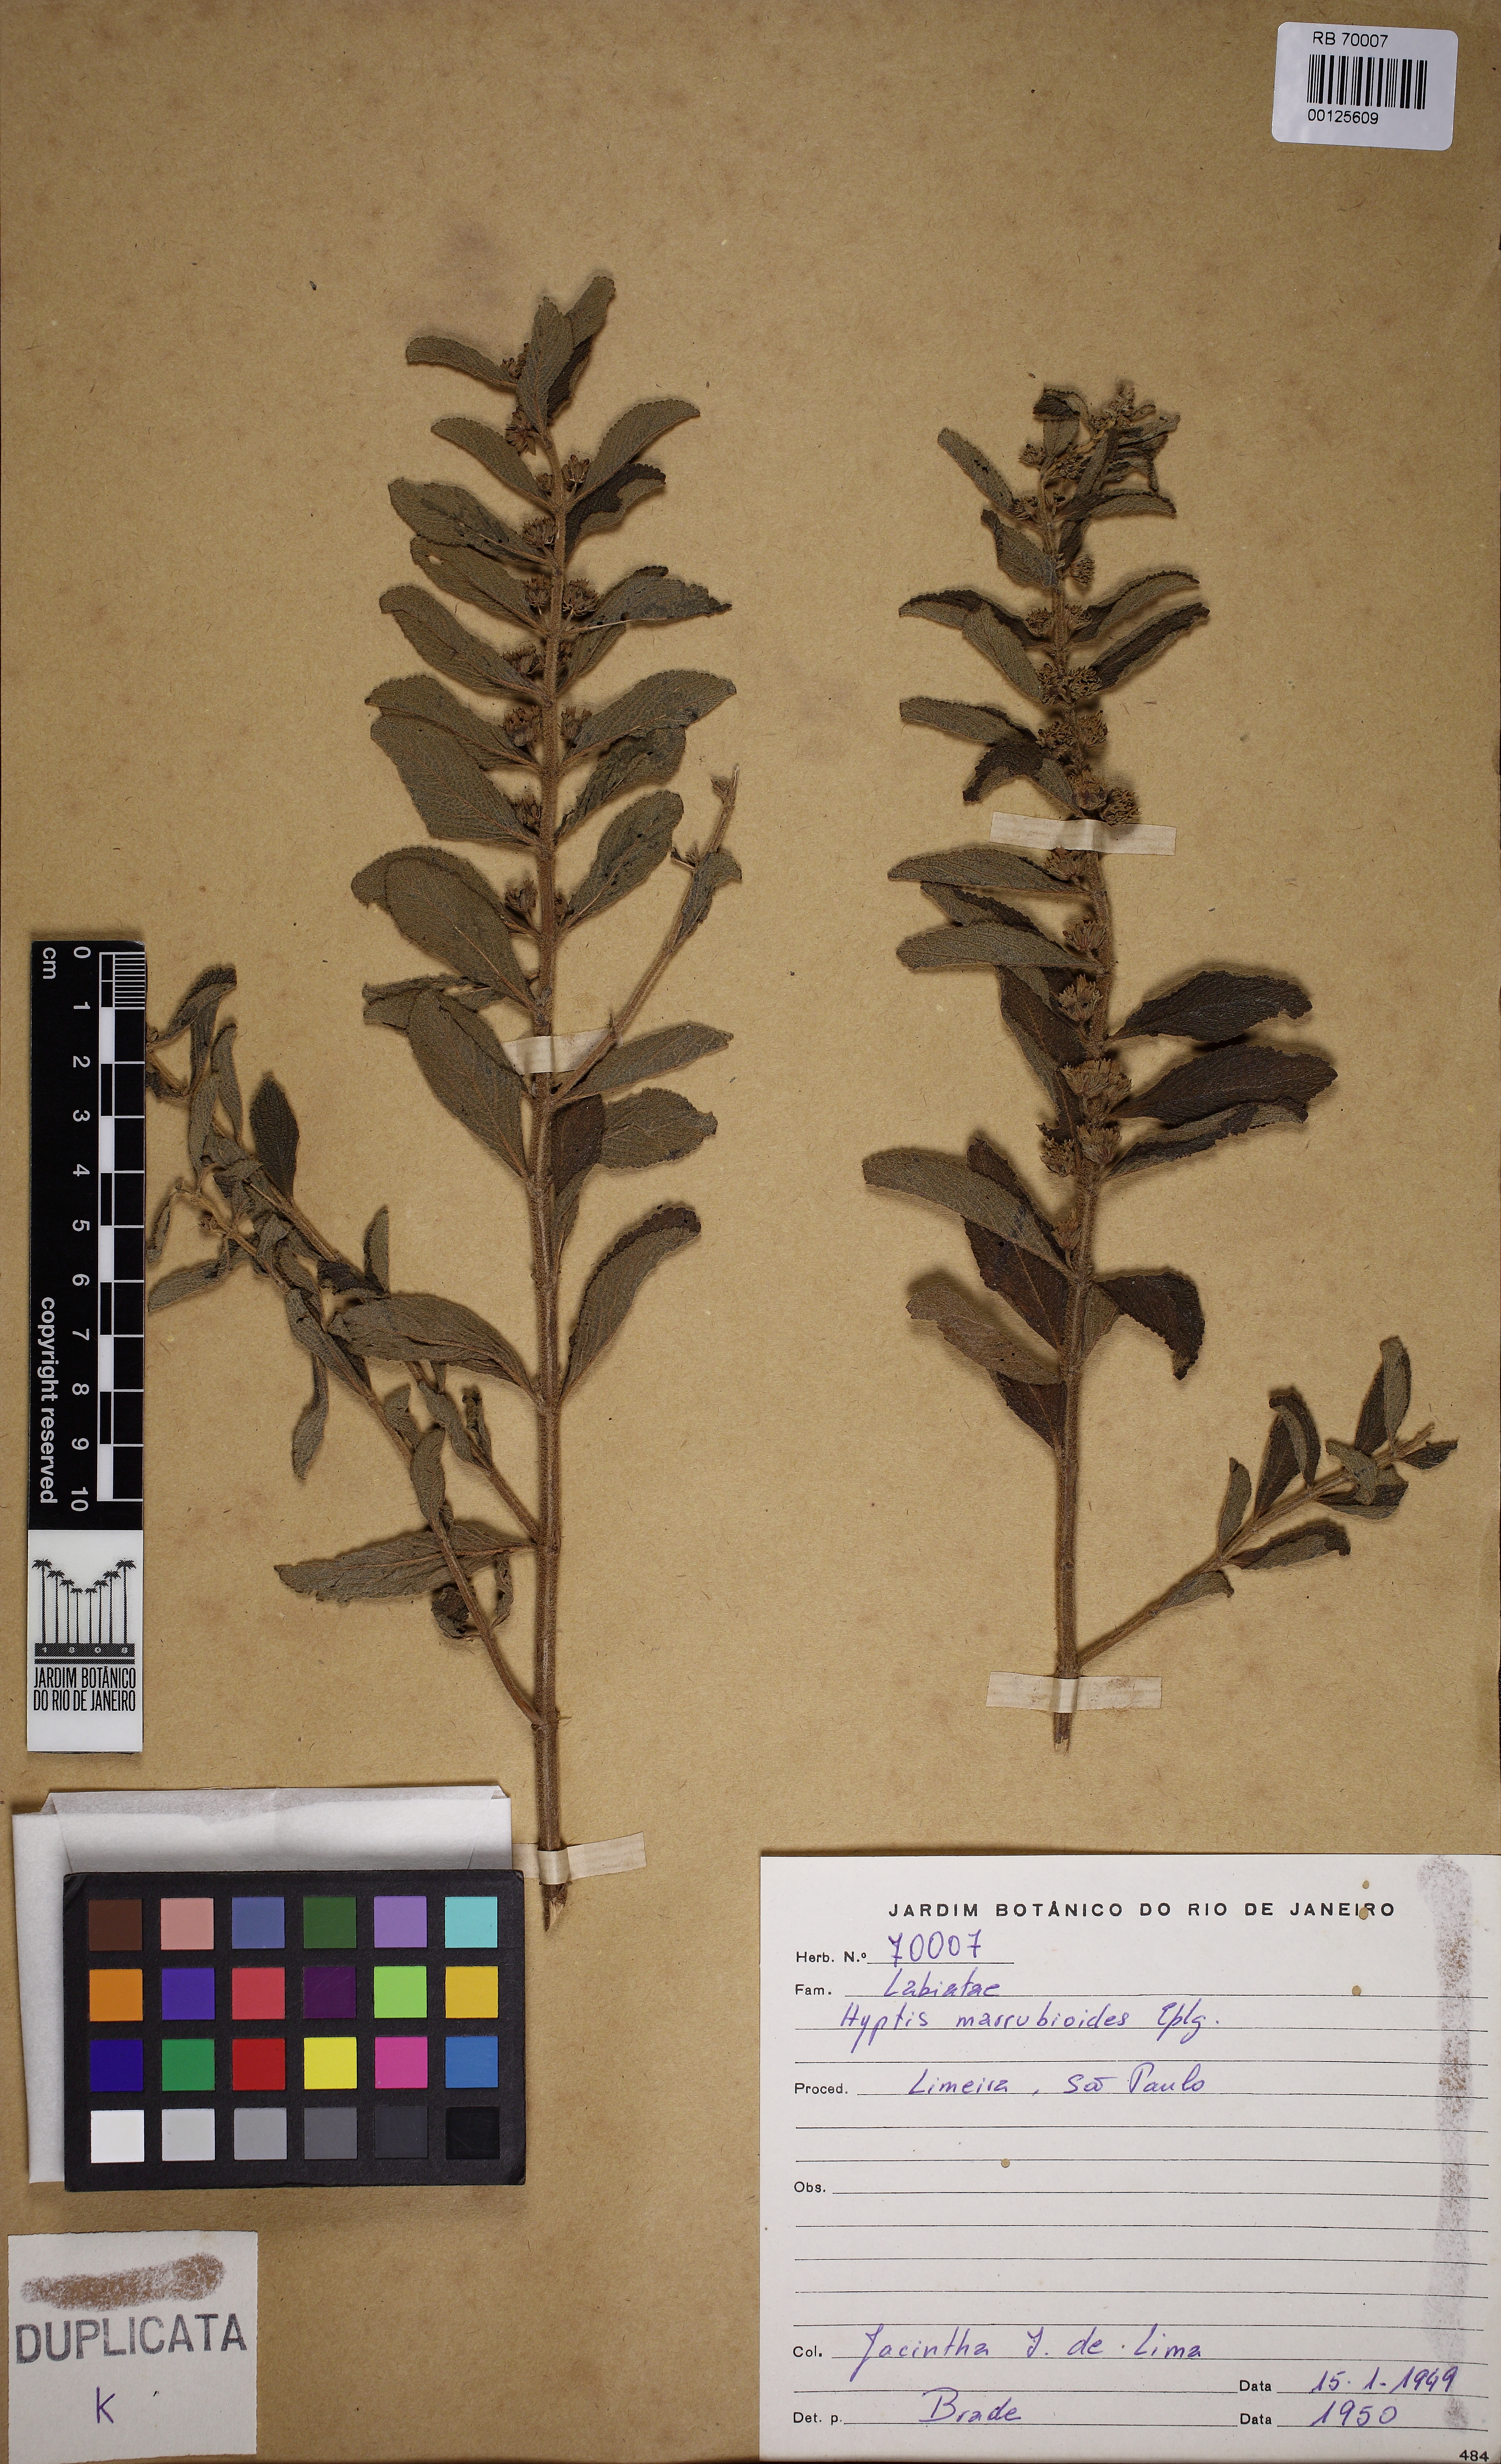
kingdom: Plantae
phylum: Tracheophyta
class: Magnoliopsida
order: Lamiales
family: Lamiaceae
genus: Hyptis
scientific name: Hyptis marrubioides
